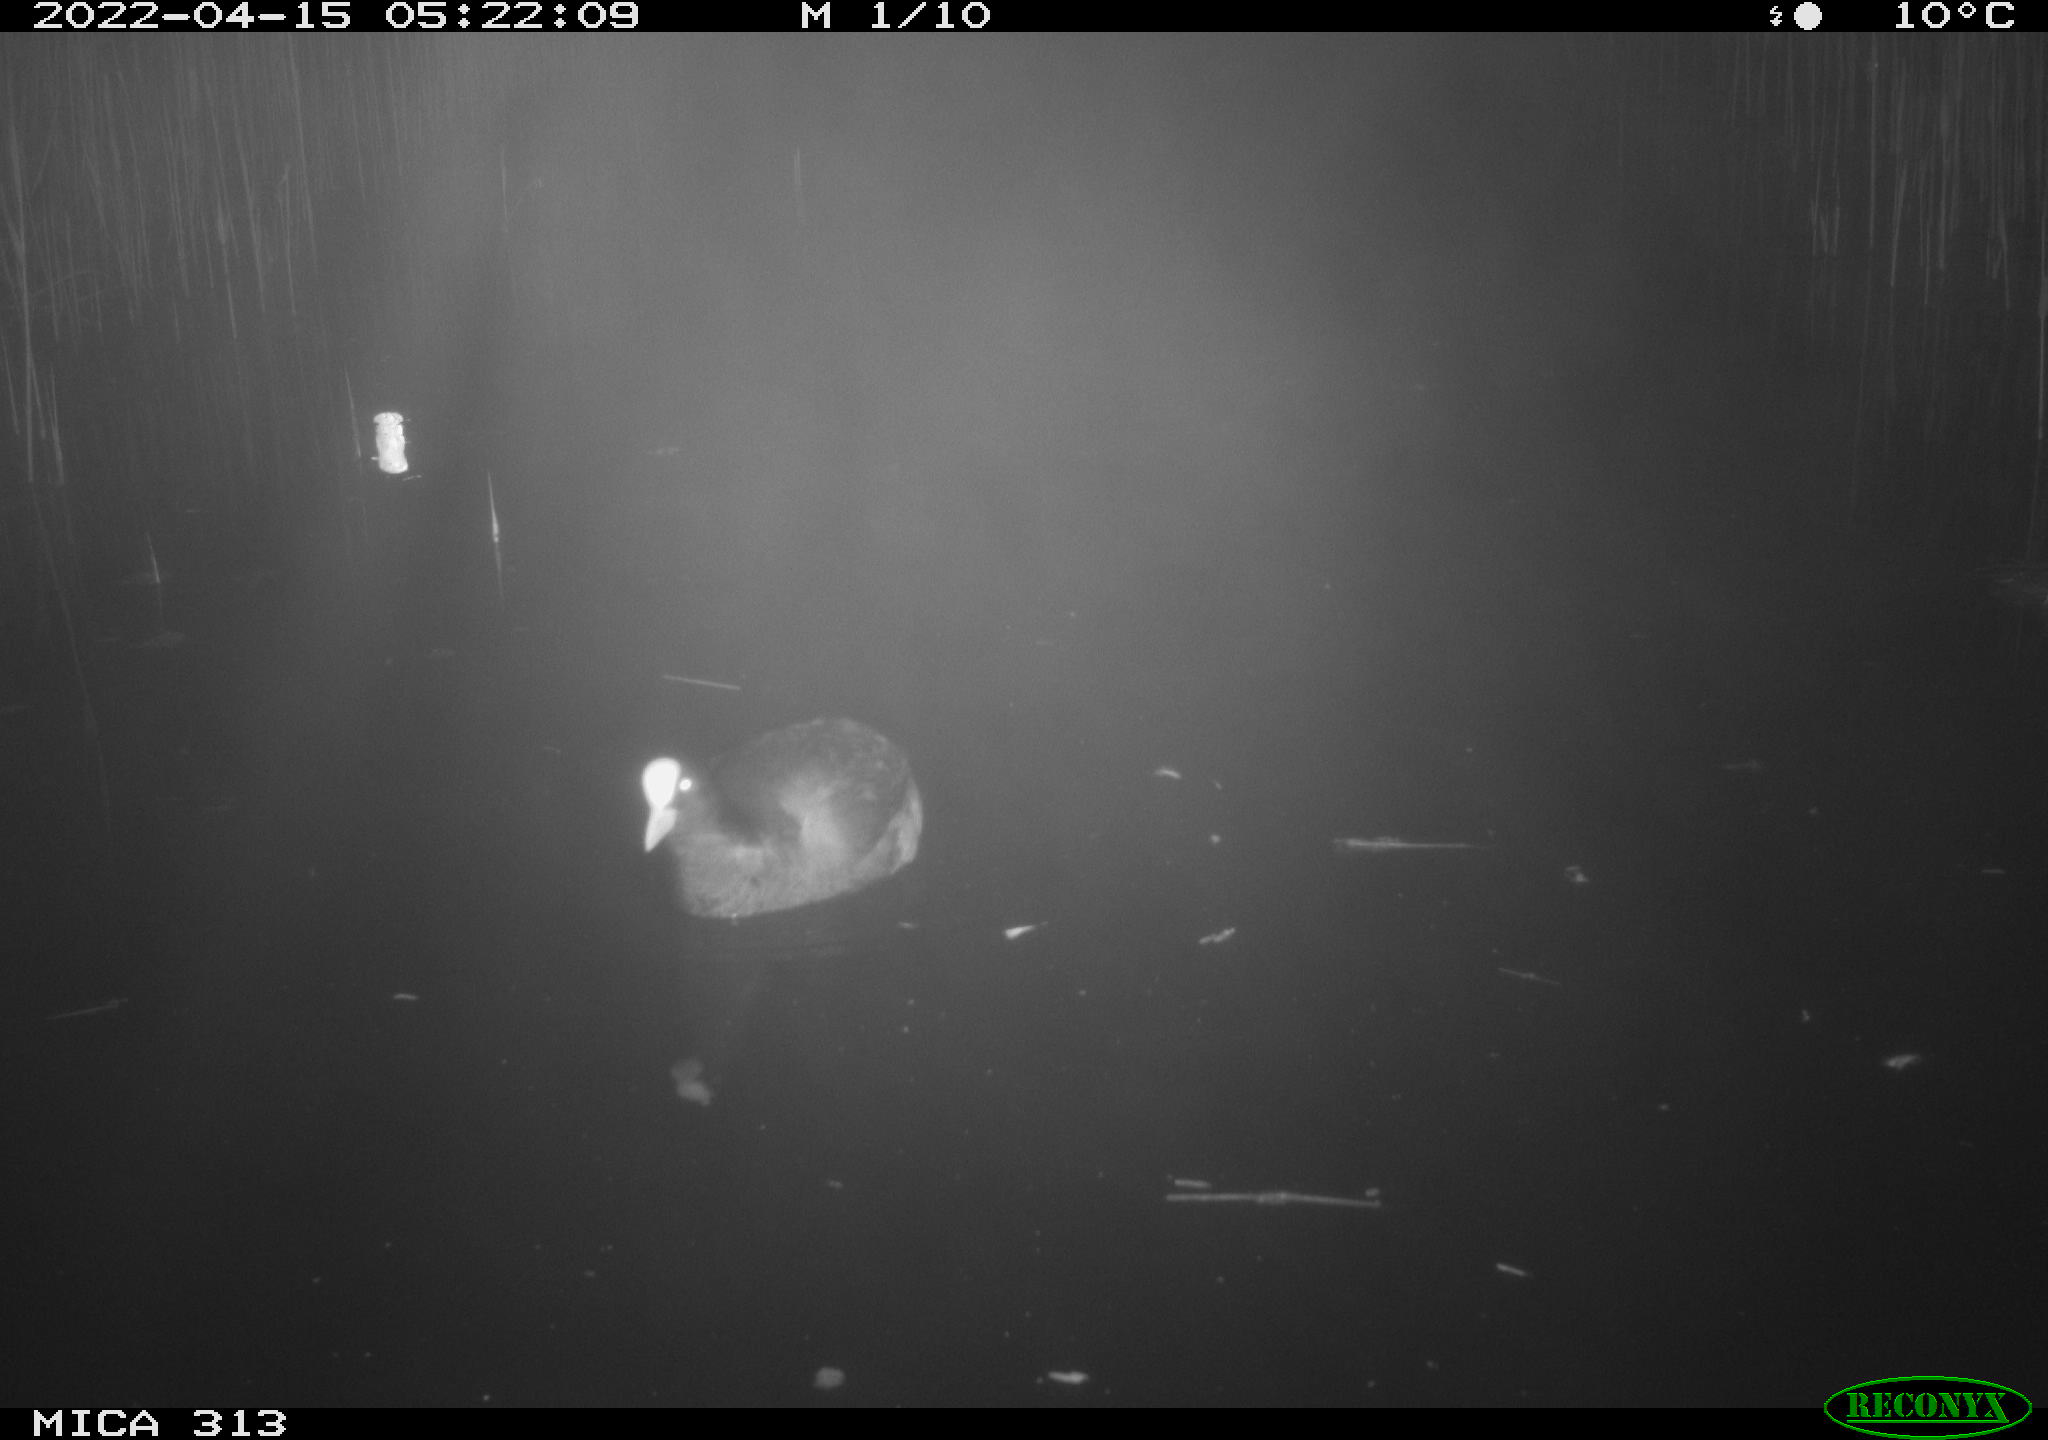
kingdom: Animalia
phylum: Chordata
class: Aves
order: Gruiformes
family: Rallidae
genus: Fulica
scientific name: Fulica atra
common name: Eurasian coot
